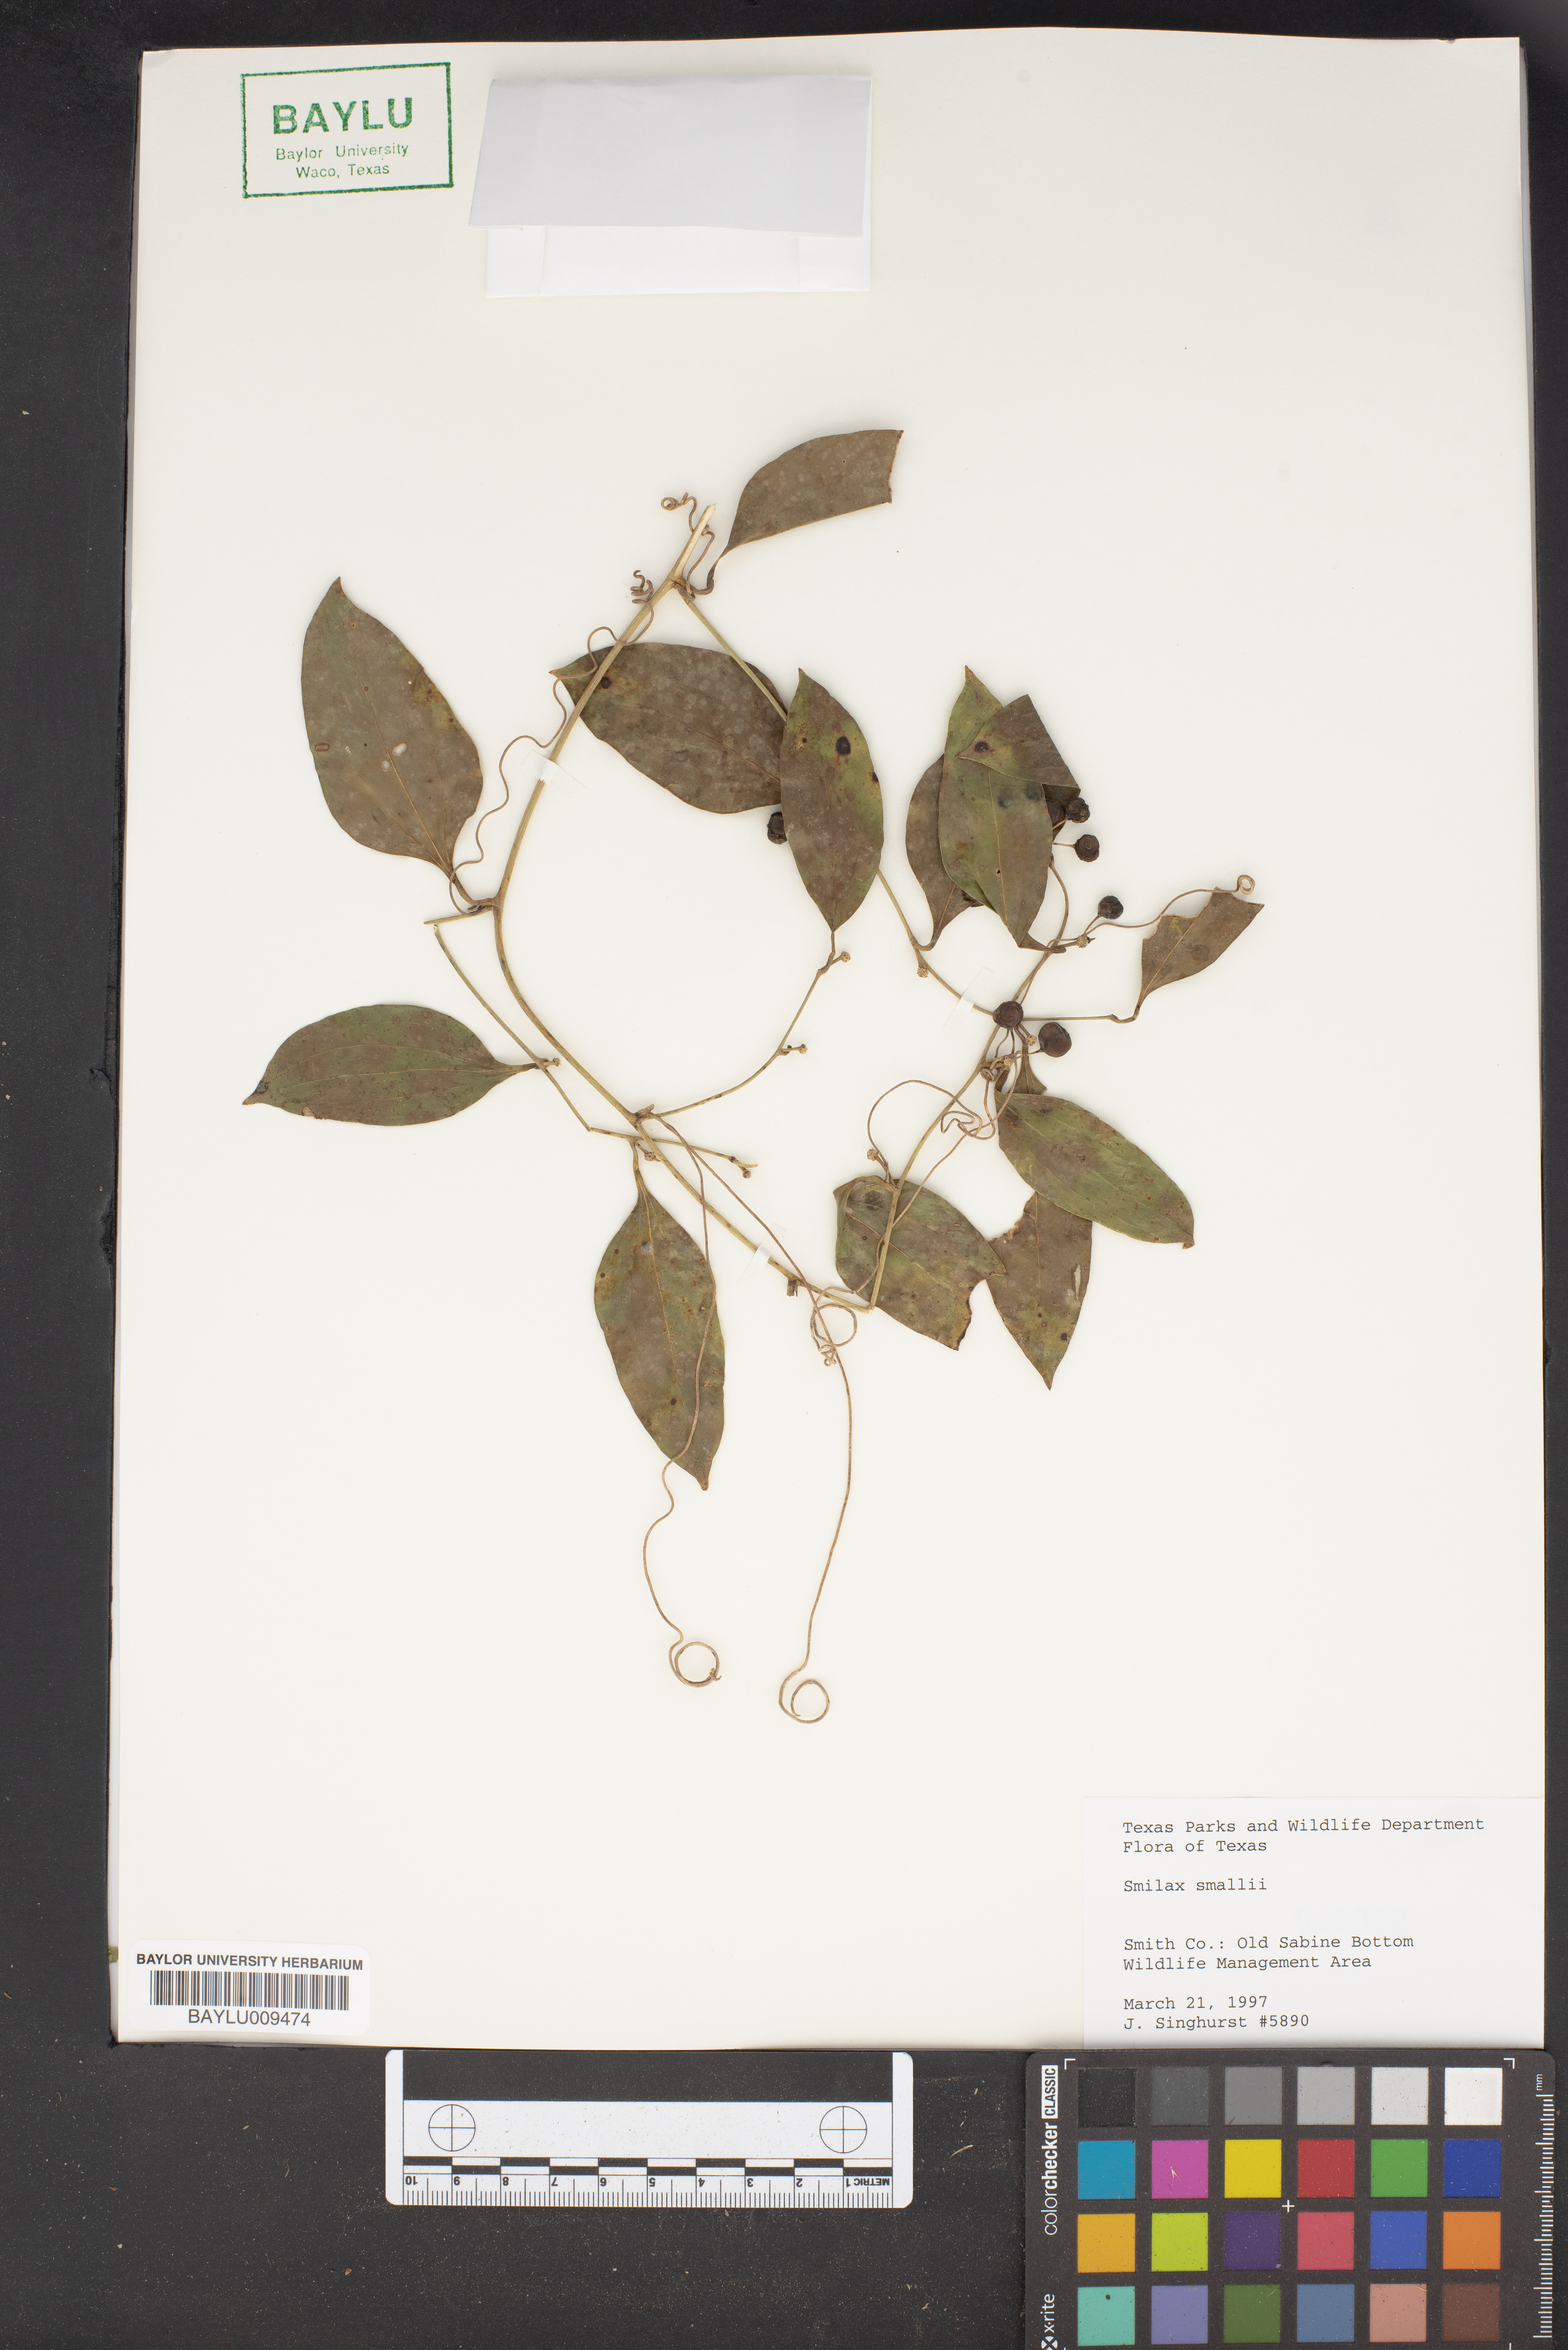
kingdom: Plantae
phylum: Tracheophyta
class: Liliopsida
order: Liliales
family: Smilacaceae
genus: Smilax
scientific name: Smilax maritima
